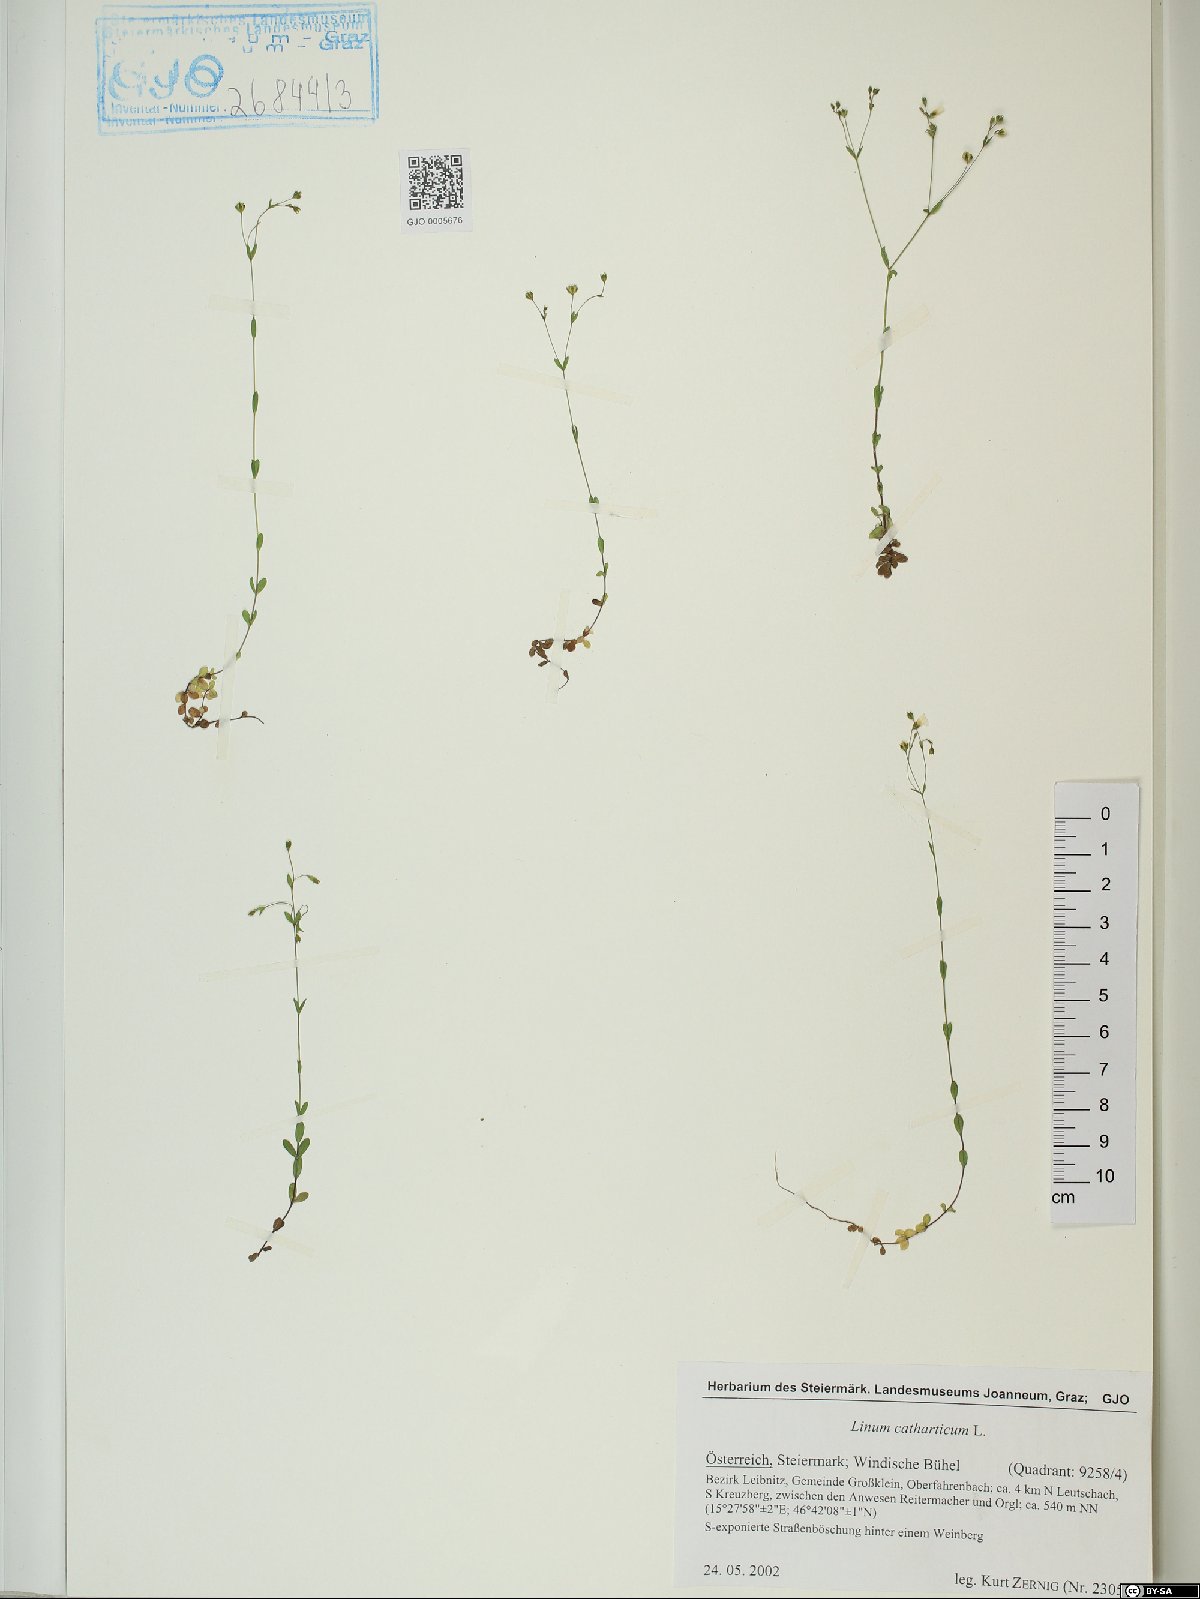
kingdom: Plantae
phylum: Tracheophyta
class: Magnoliopsida
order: Malpighiales
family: Linaceae
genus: Linum
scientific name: Linum catharticum
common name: Fairy flax
